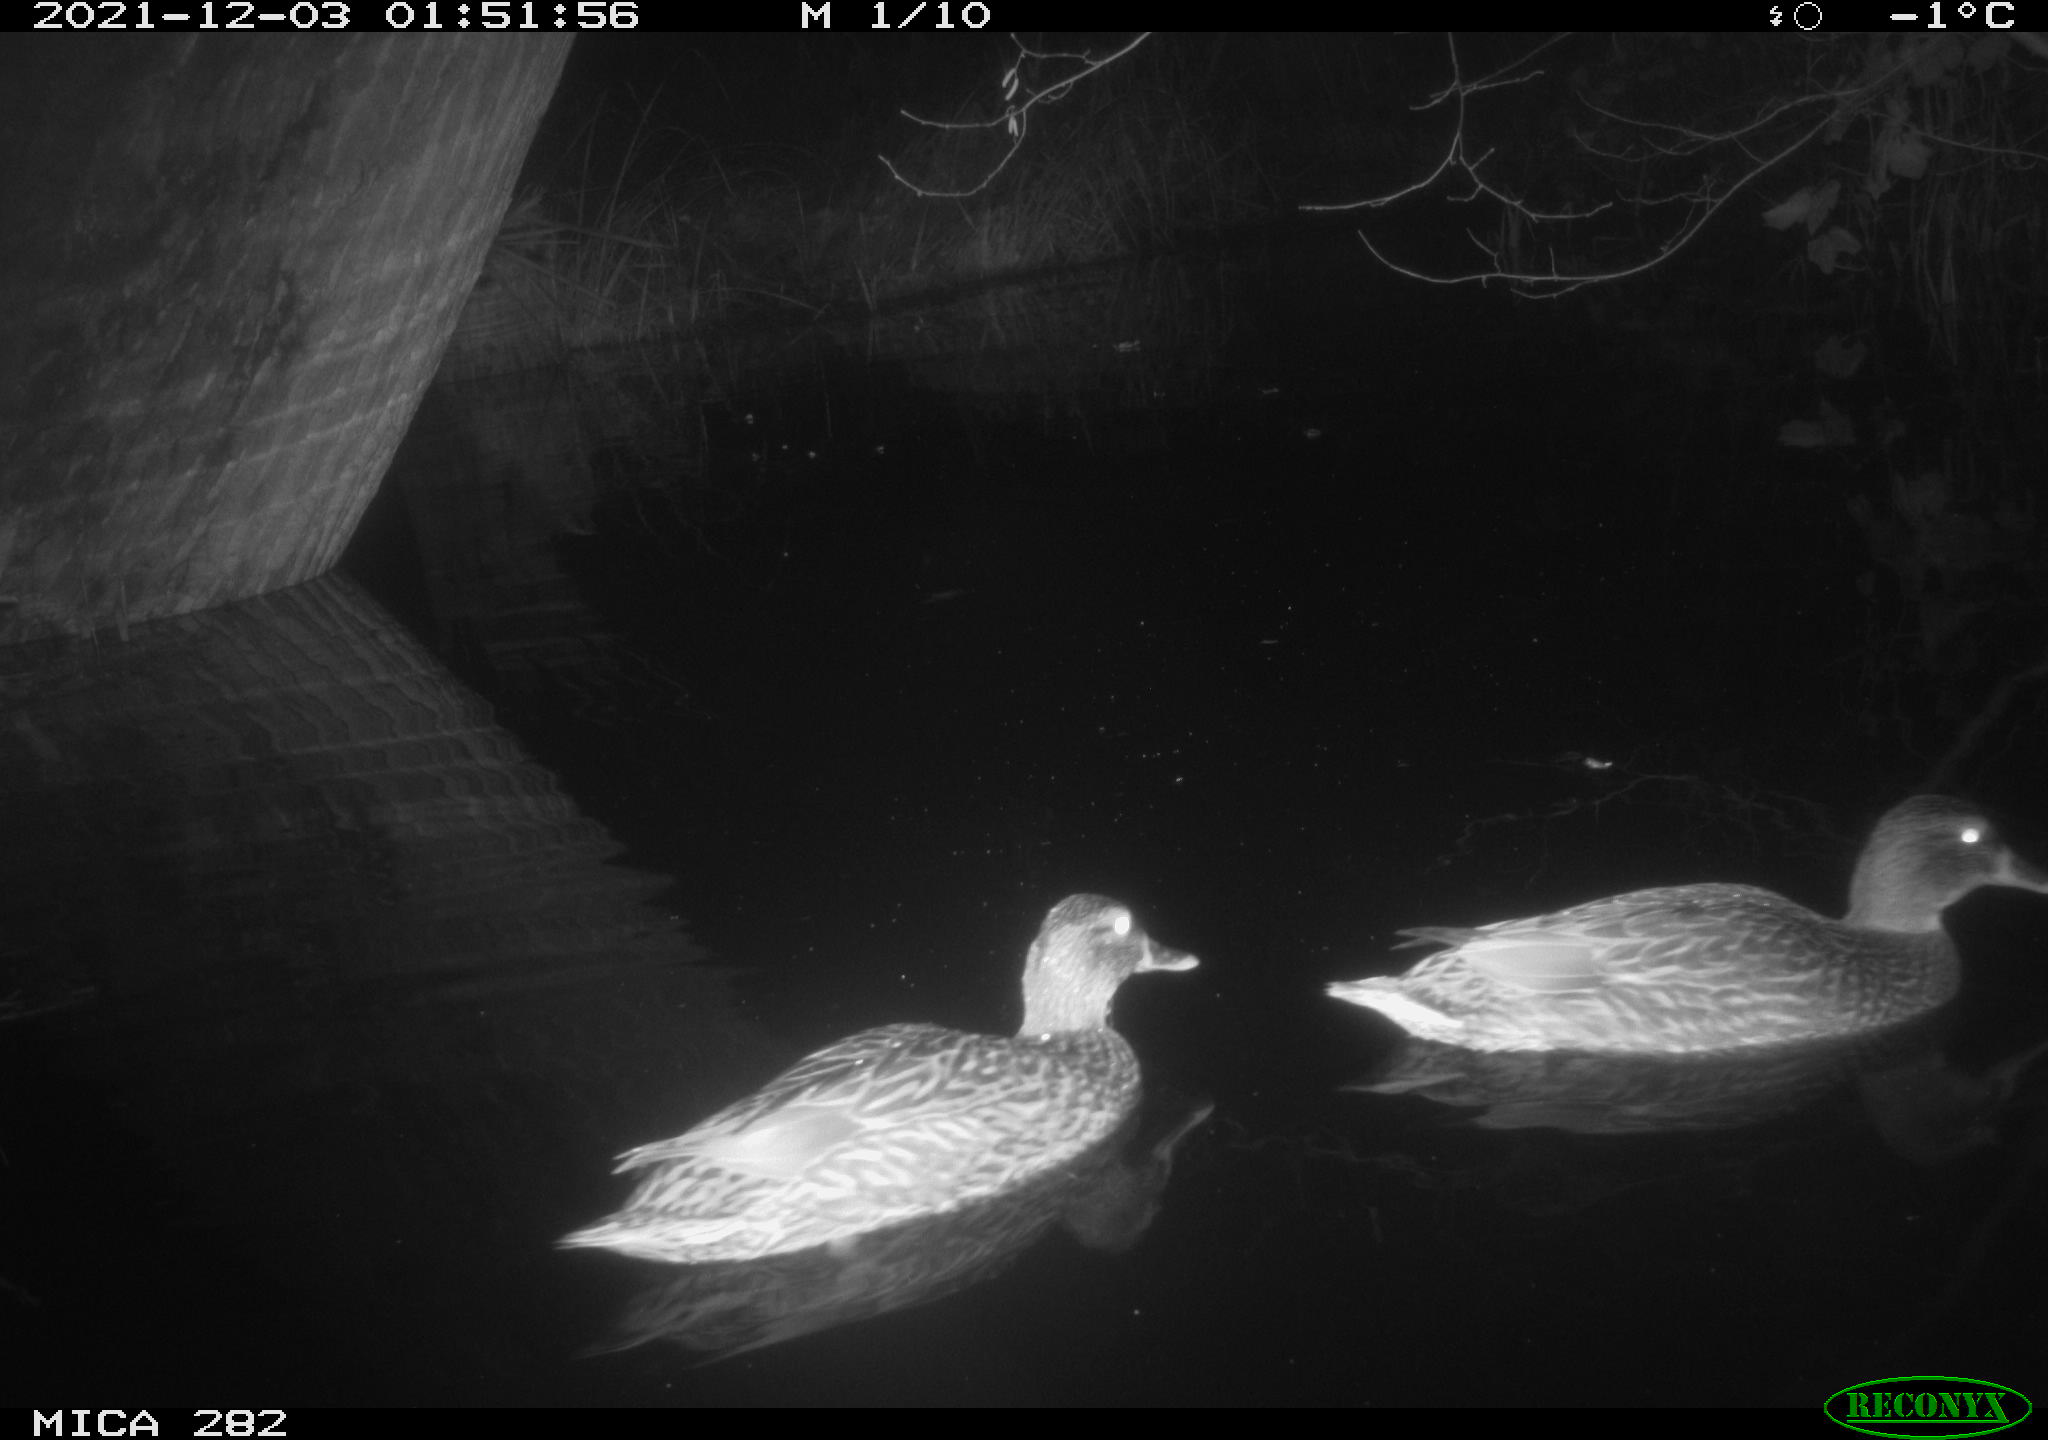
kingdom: Animalia
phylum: Chordata
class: Aves
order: Gruiformes
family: Rallidae
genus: Fulica
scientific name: Fulica atra
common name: Eurasian coot
